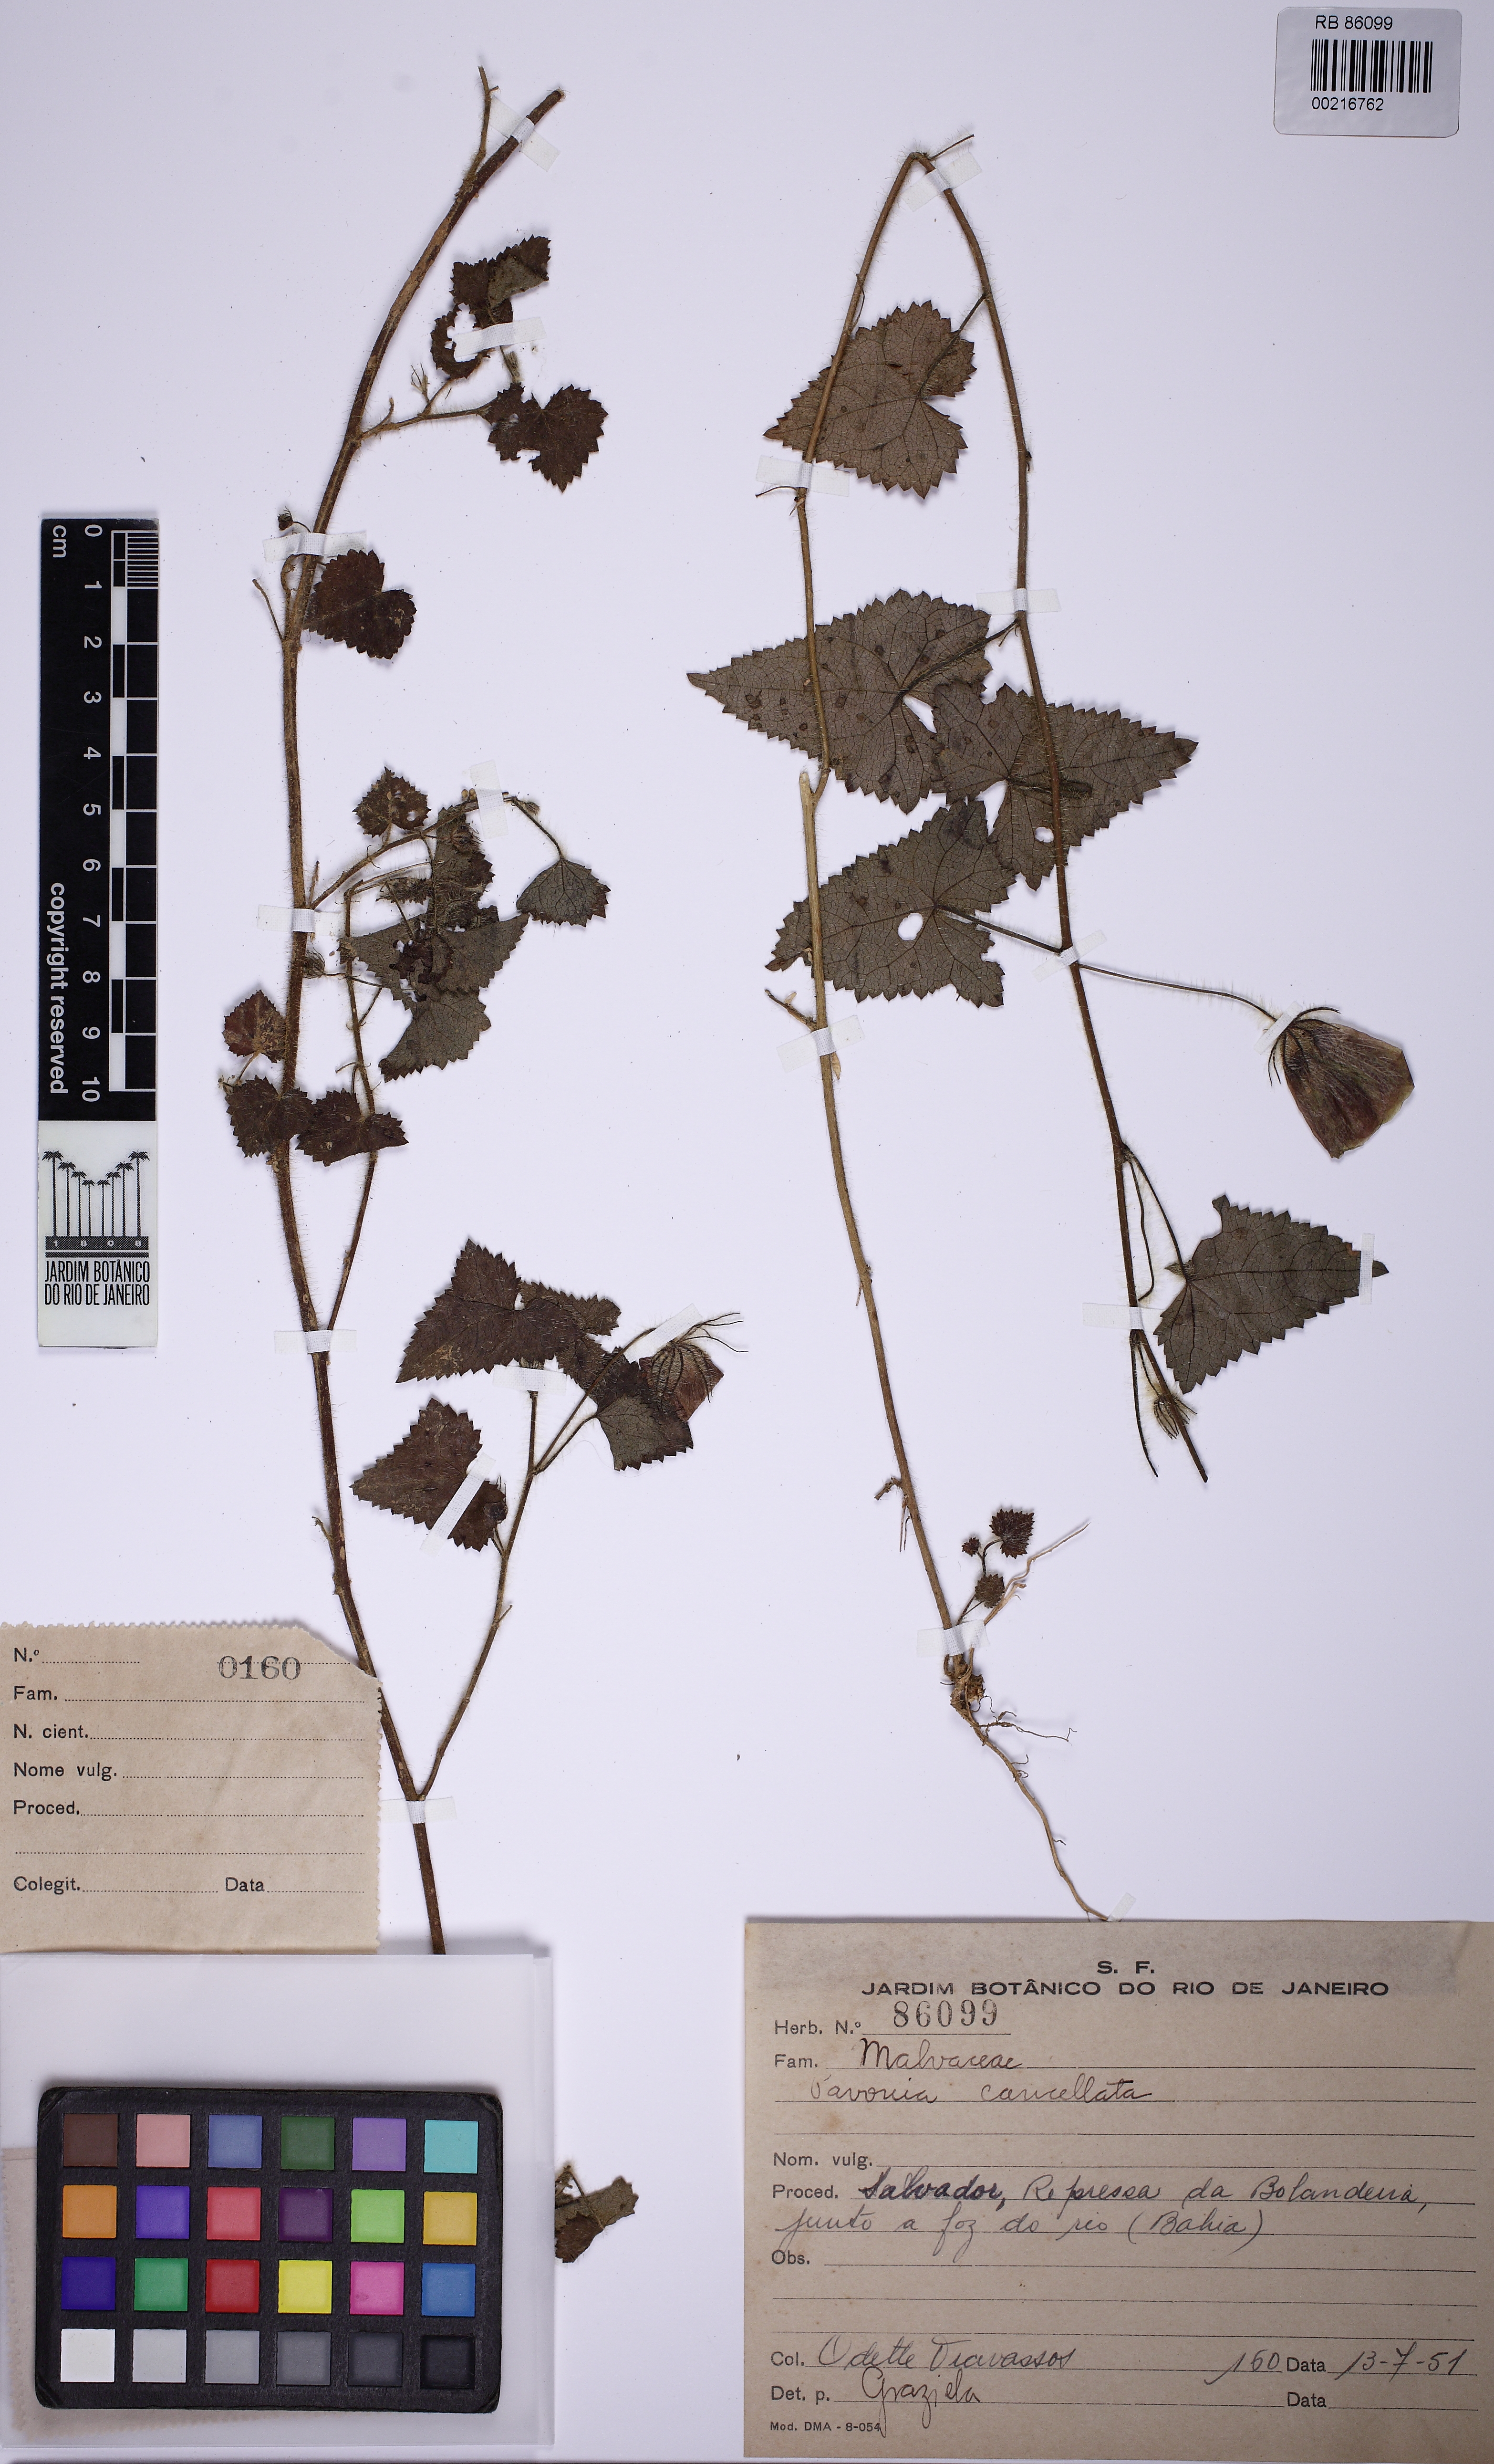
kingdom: Plantae
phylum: Tracheophyta
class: Magnoliopsida
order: Malvales
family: Malvaceae
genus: Pavonia
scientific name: Pavonia cancellata
